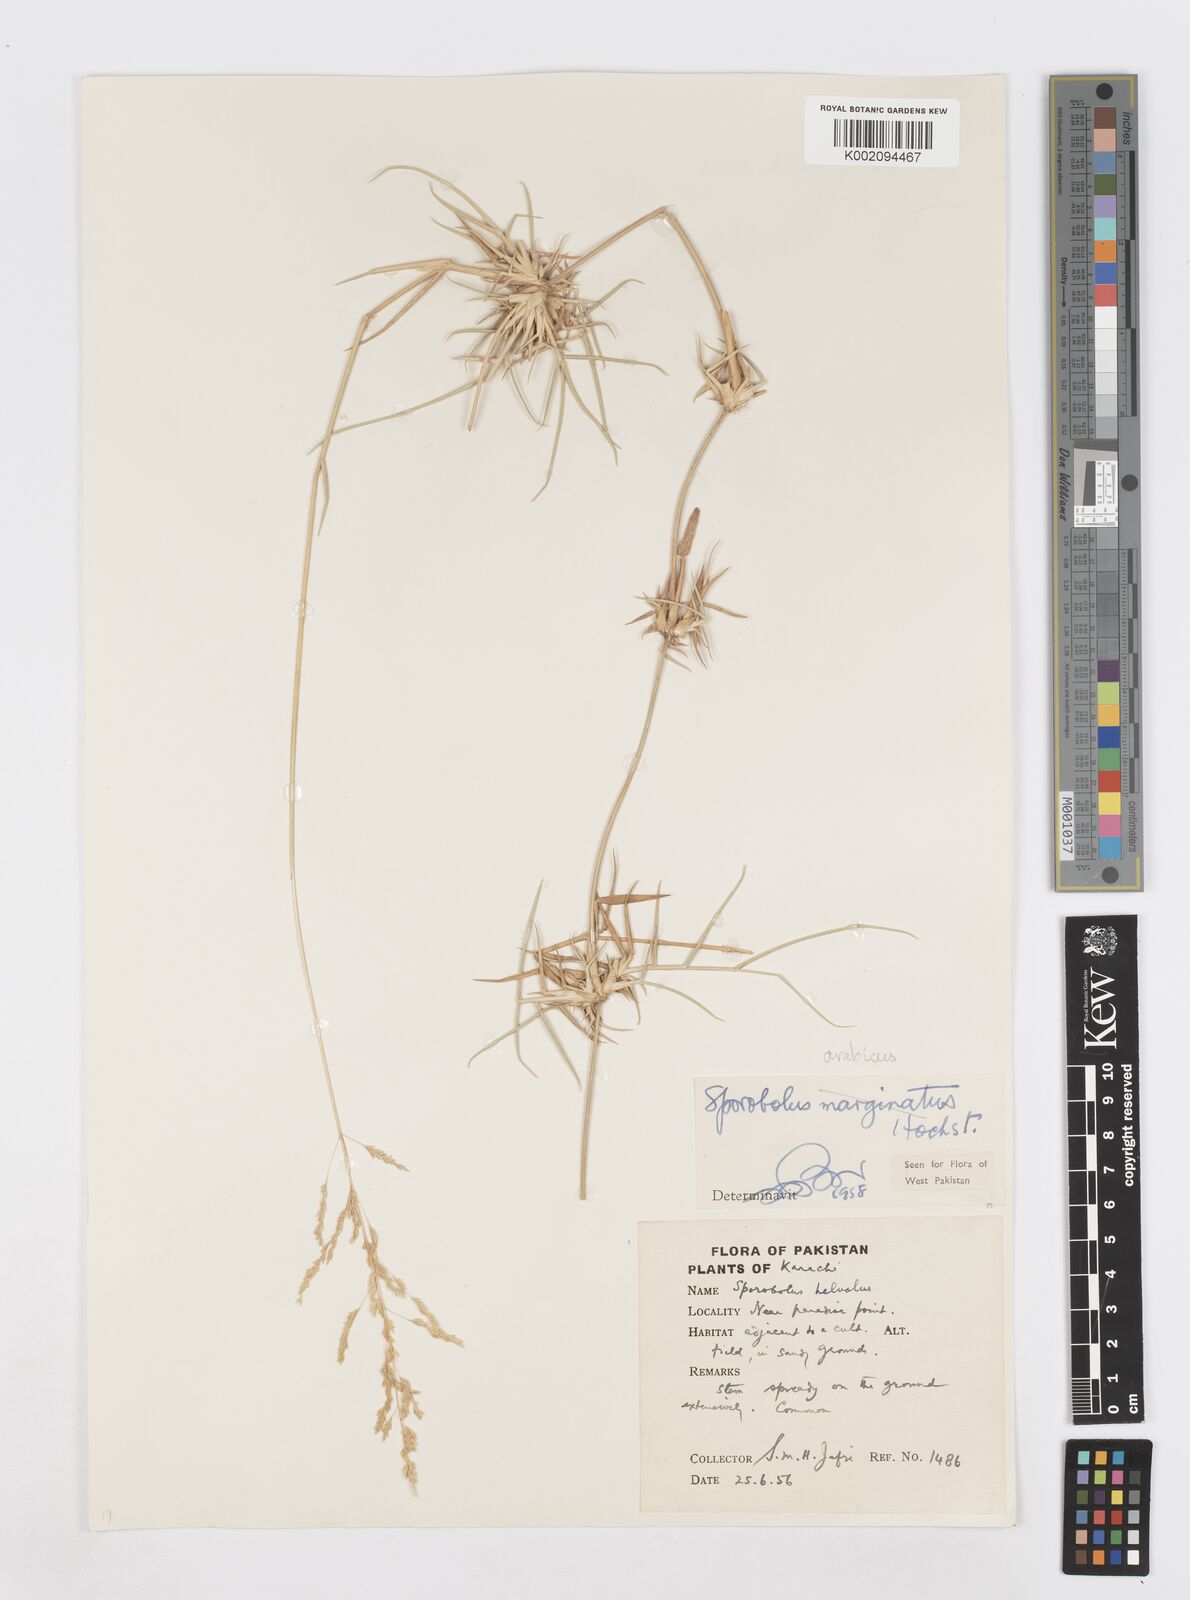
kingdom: Plantae
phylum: Tracheophyta
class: Liliopsida
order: Poales
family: Poaceae
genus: Sporobolus
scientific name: Sporobolus ioclados
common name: Pan dropseed
